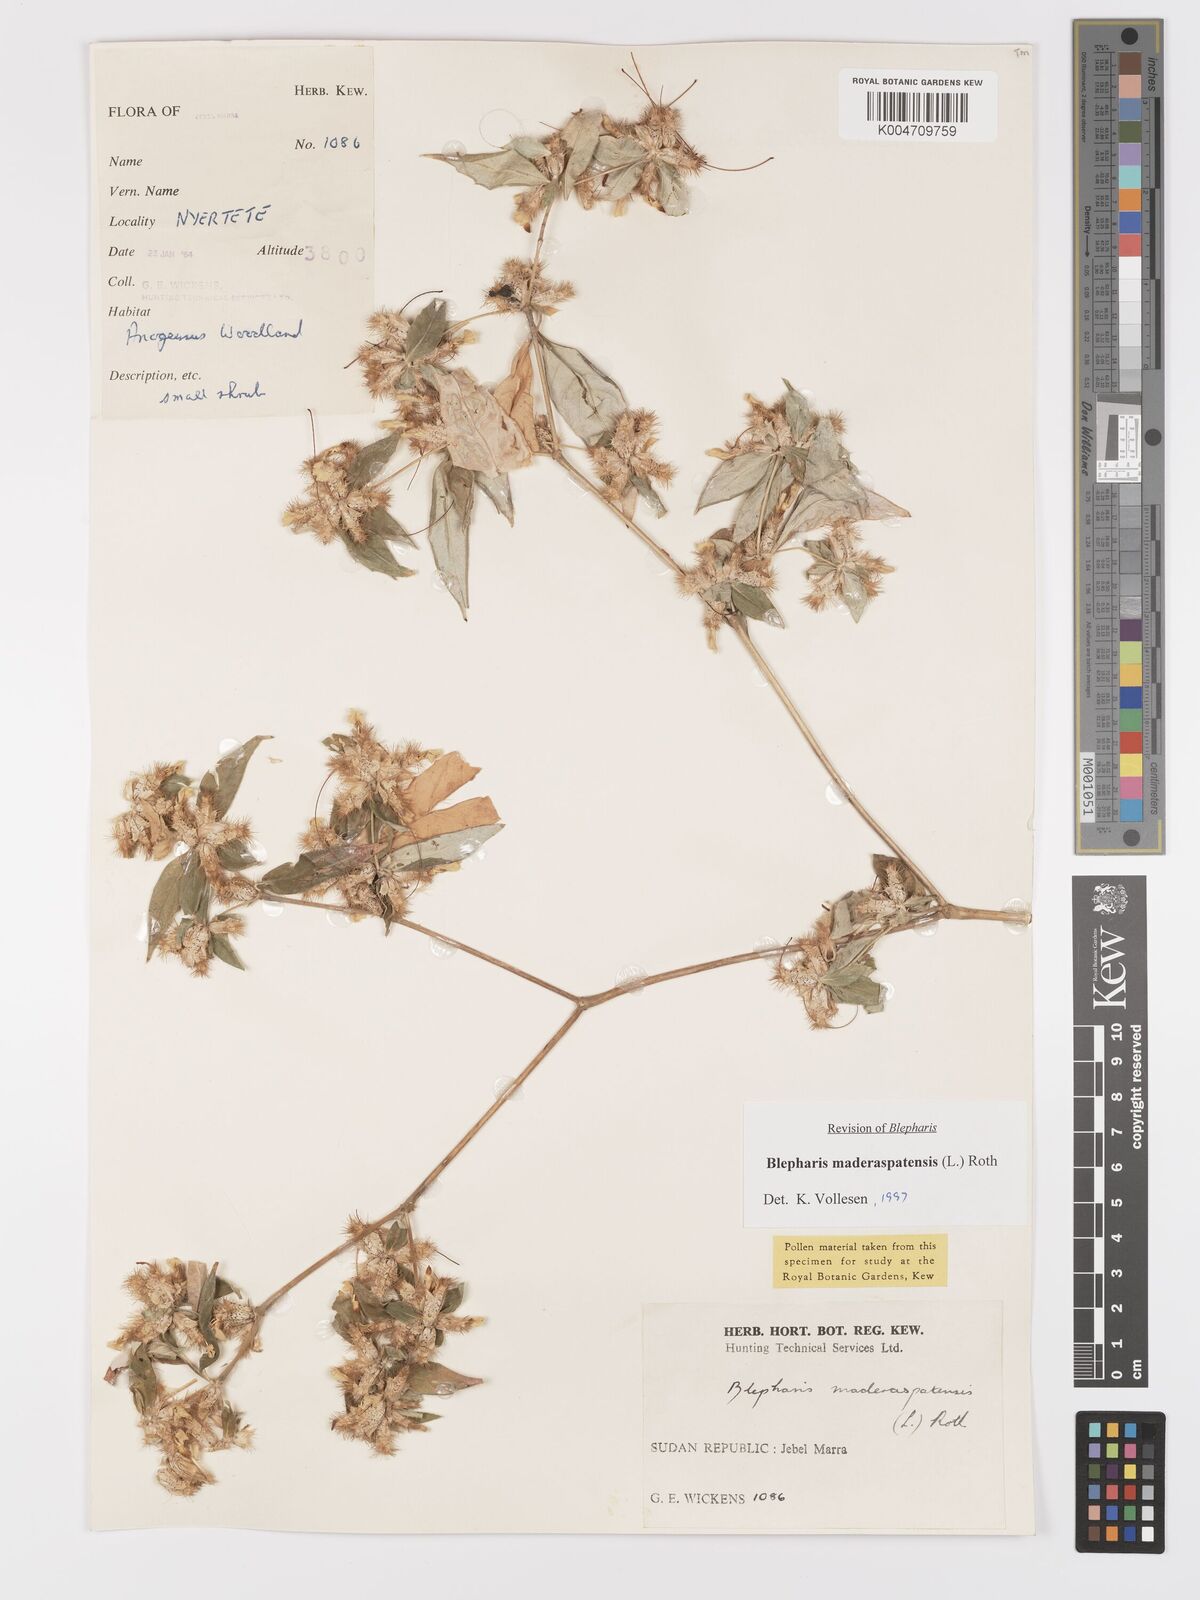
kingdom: Plantae
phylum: Tracheophyta
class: Magnoliopsida
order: Lamiales
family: Acanthaceae
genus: Blepharis
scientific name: Blepharis maderaspatensis
